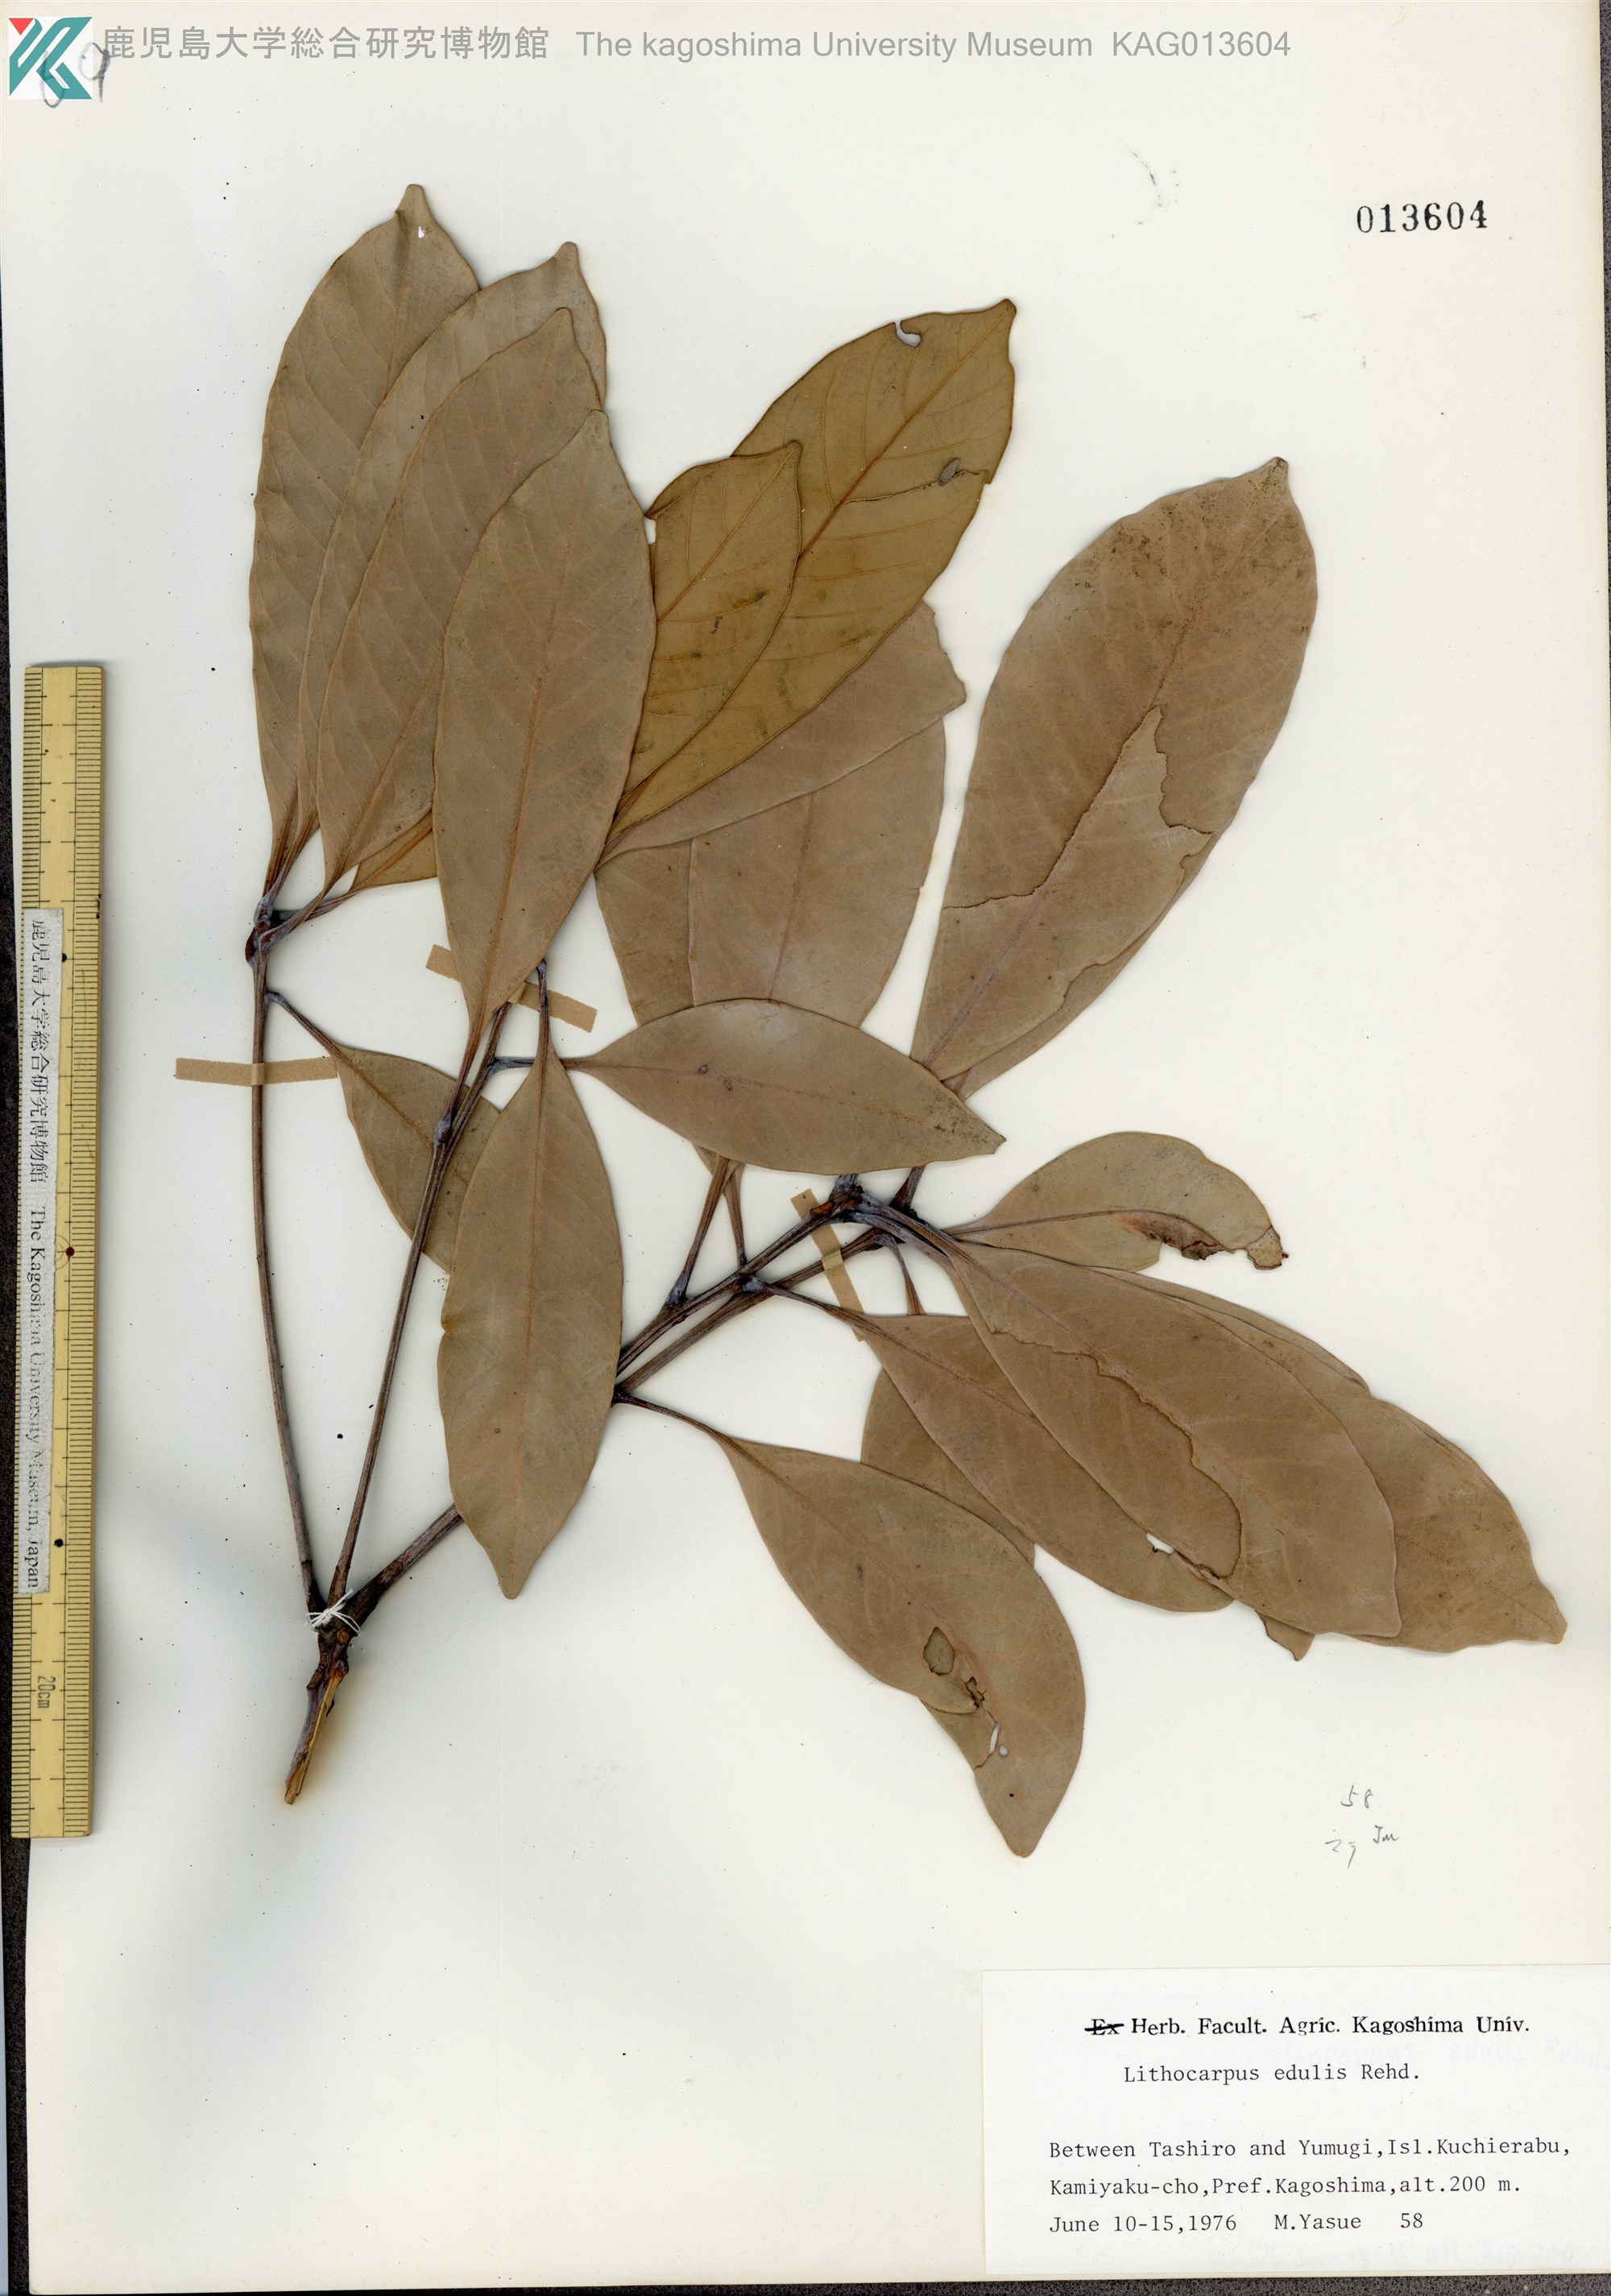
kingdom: Plantae
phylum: Tracheophyta
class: Magnoliopsida
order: Fagales
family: Fagaceae
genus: Lithocarpus
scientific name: Lithocarpus edulis
